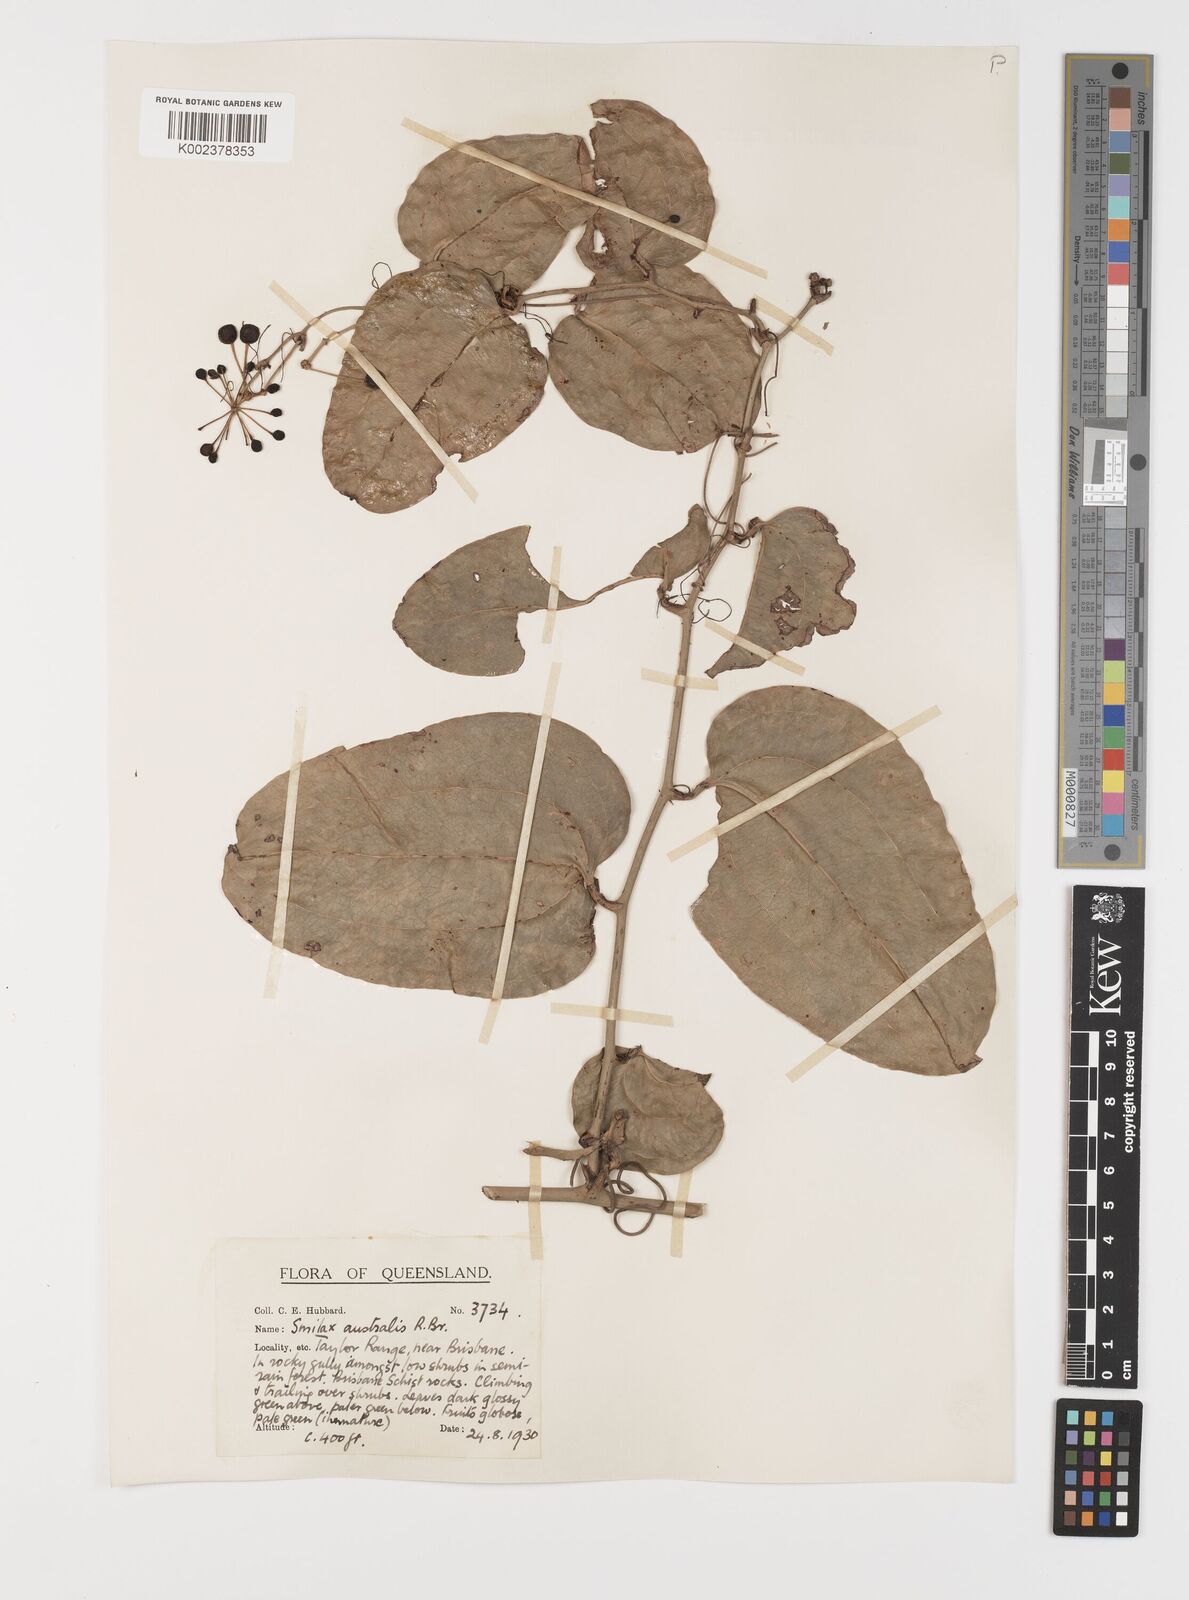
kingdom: Plantae
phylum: Tracheophyta
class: Liliopsida
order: Liliales
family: Smilacaceae
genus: Smilax
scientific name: Smilax australis
